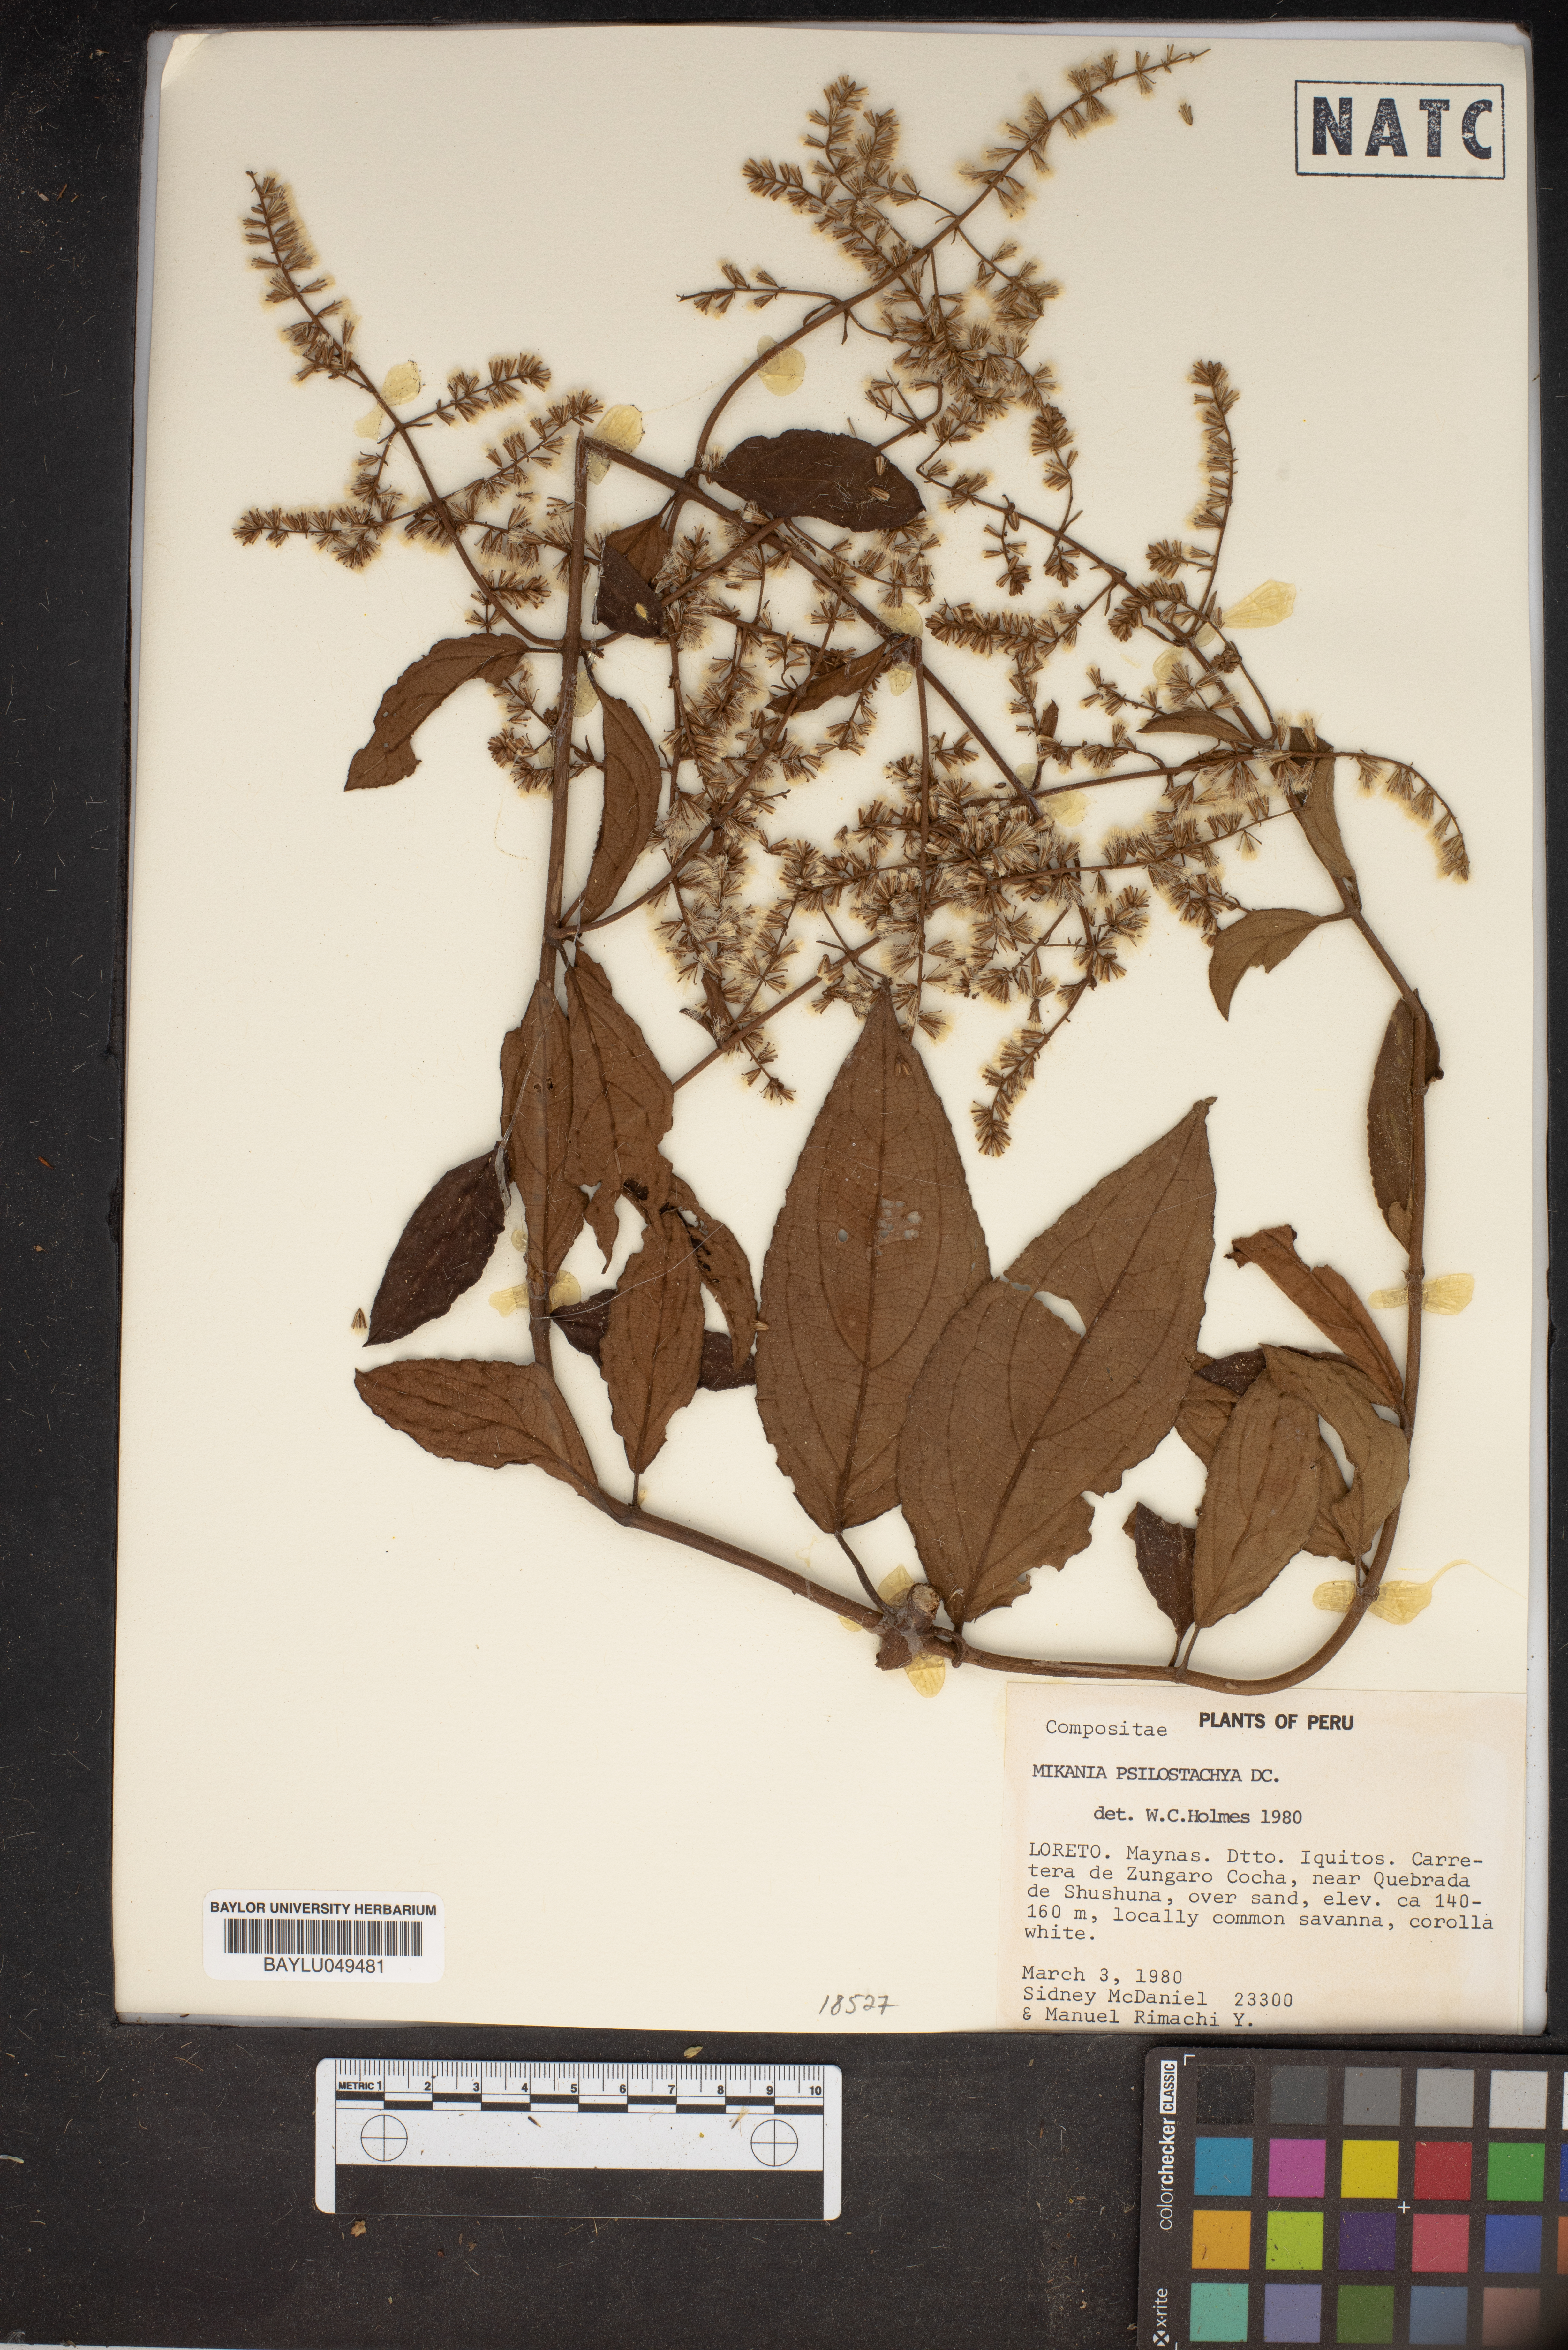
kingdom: Plantae
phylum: Tracheophyta
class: Magnoliopsida
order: Asterales
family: Asteraceae
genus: Mikania
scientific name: Mikania psilostachya
